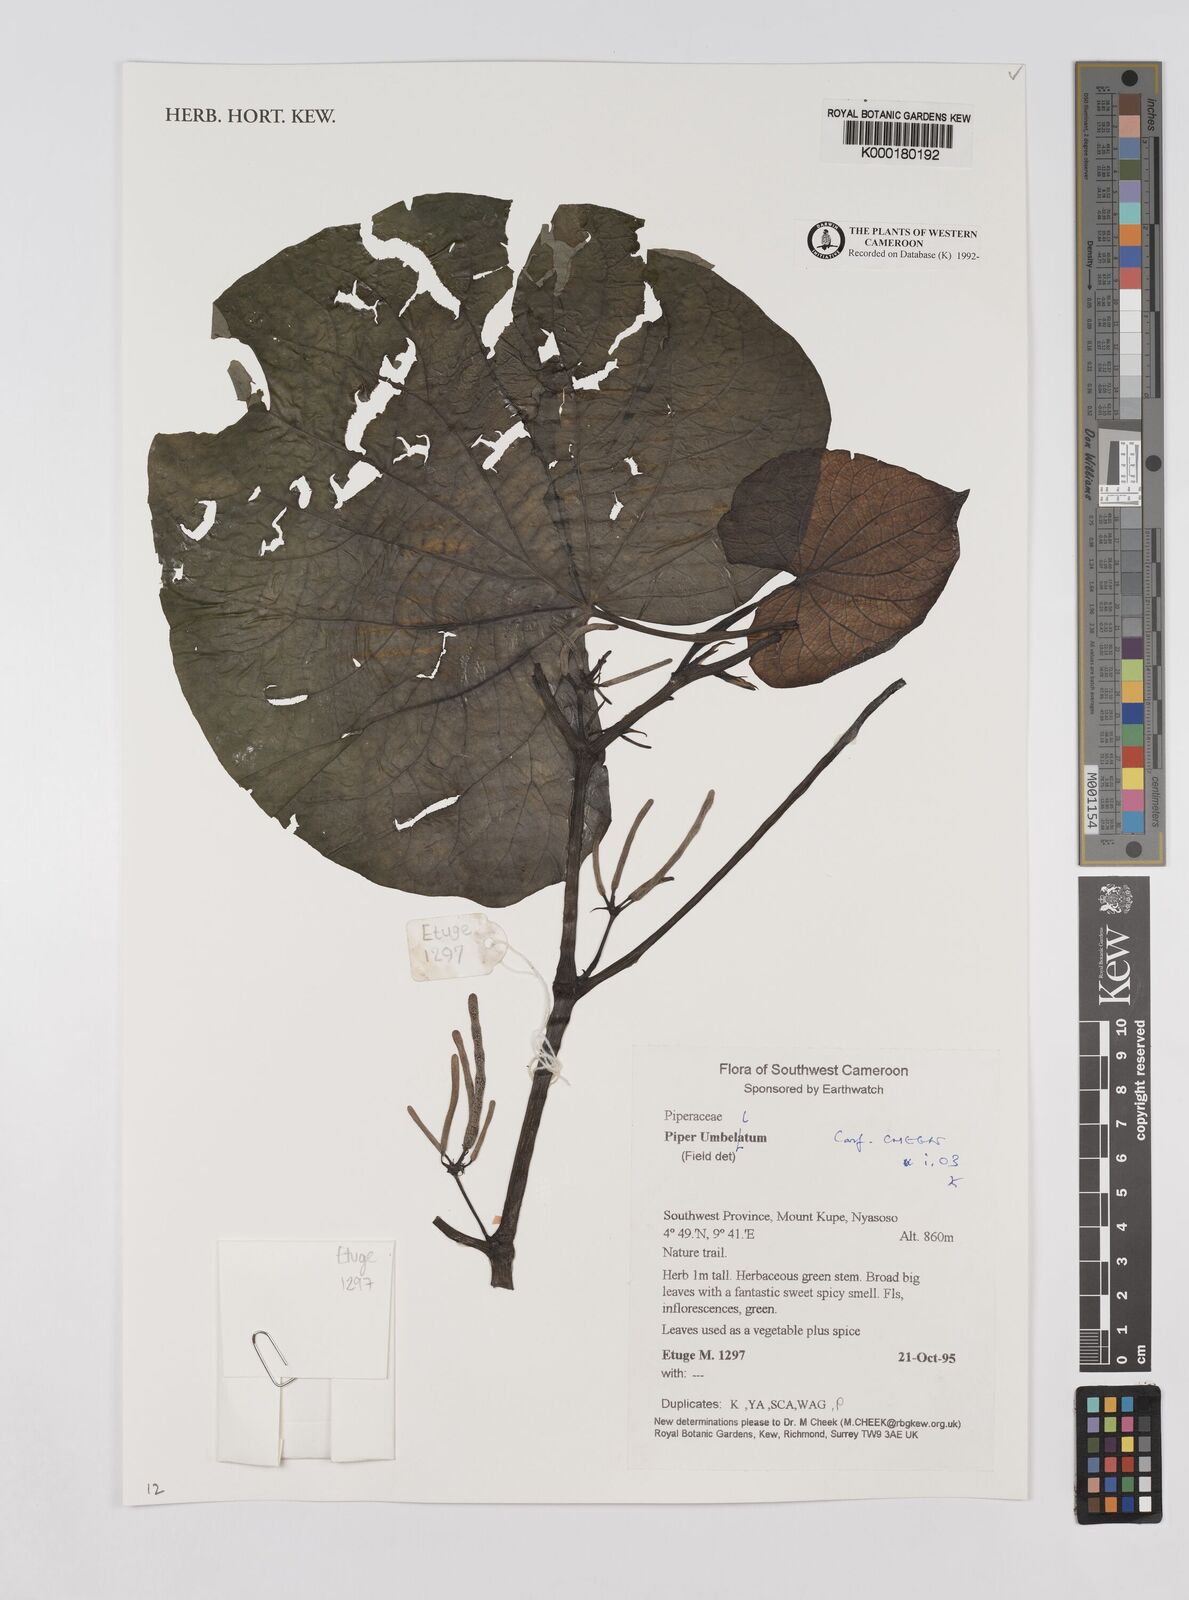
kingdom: Plantae
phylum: Tracheophyta
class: Magnoliopsida
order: Piperales
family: Piperaceae
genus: Piper
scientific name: Piper umbellatum
